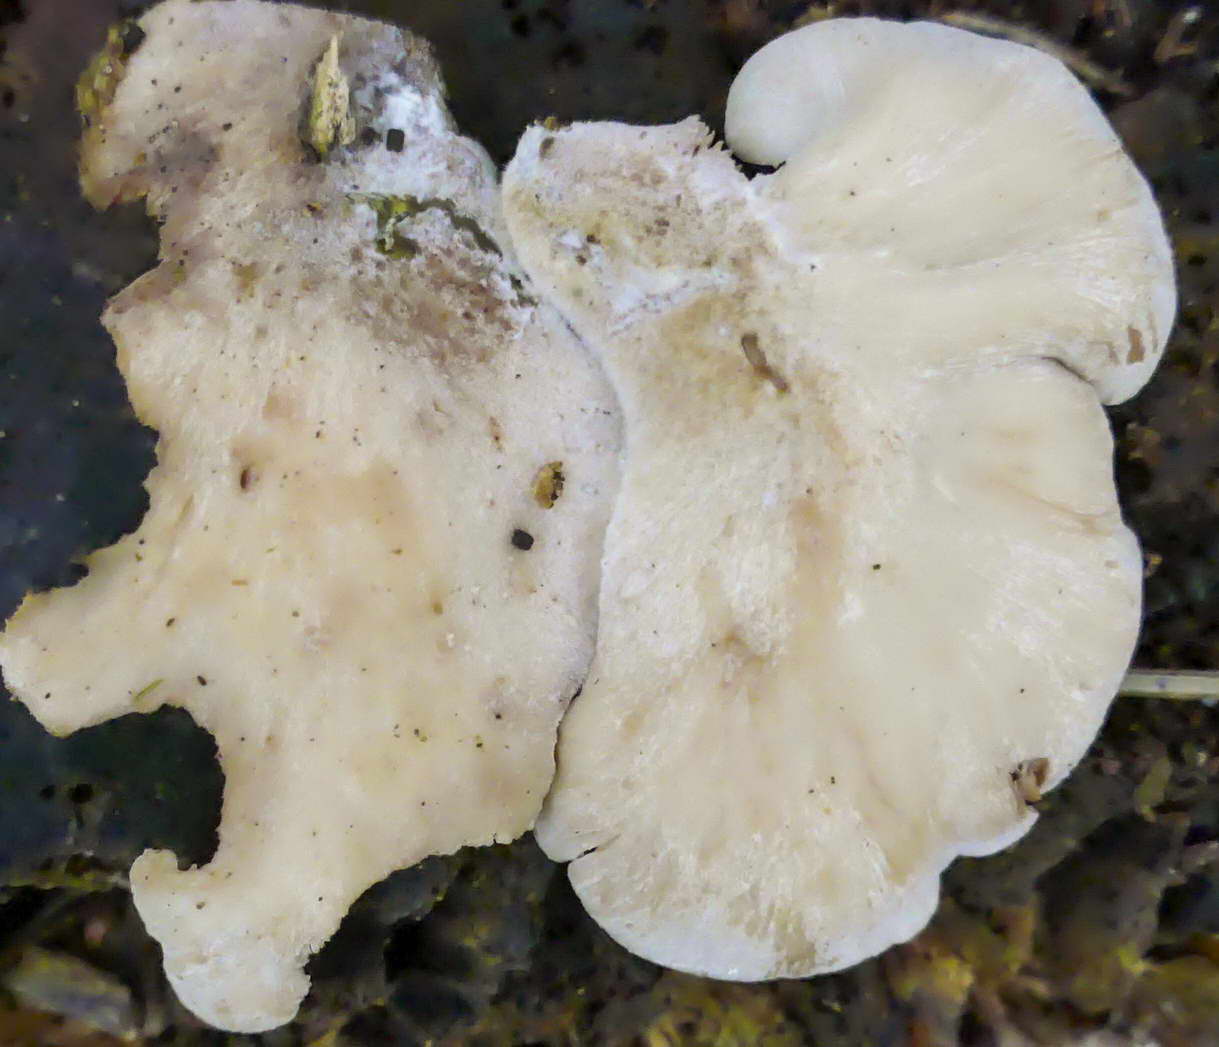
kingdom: Fungi
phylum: Basidiomycota
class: Agaricomycetes
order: Russulales
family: Auriscalpiaceae
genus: Lentinellus
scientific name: Lentinellus ursinus
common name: børstehåret savbladhat
